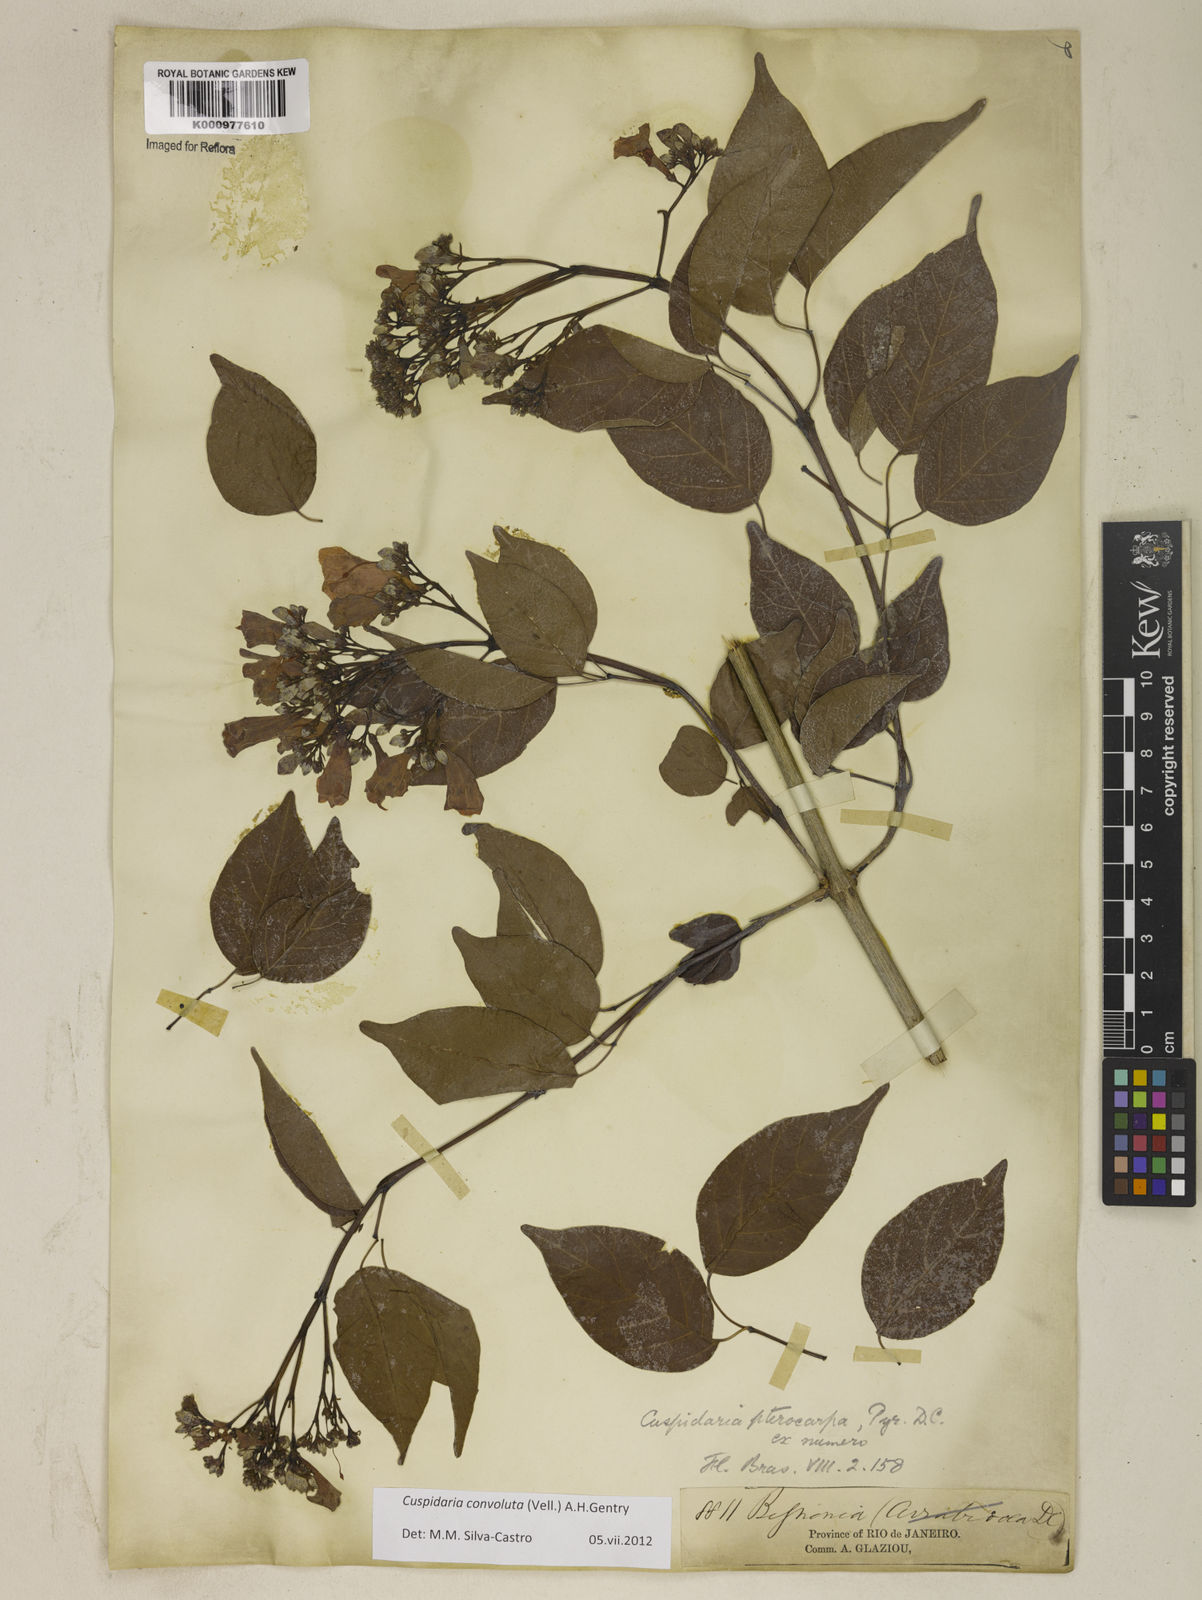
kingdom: Plantae
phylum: Tracheophyta
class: Magnoliopsida
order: Lamiales
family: Bignoniaceae
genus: Cuspidaria
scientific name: Cuspidaria convoluta
